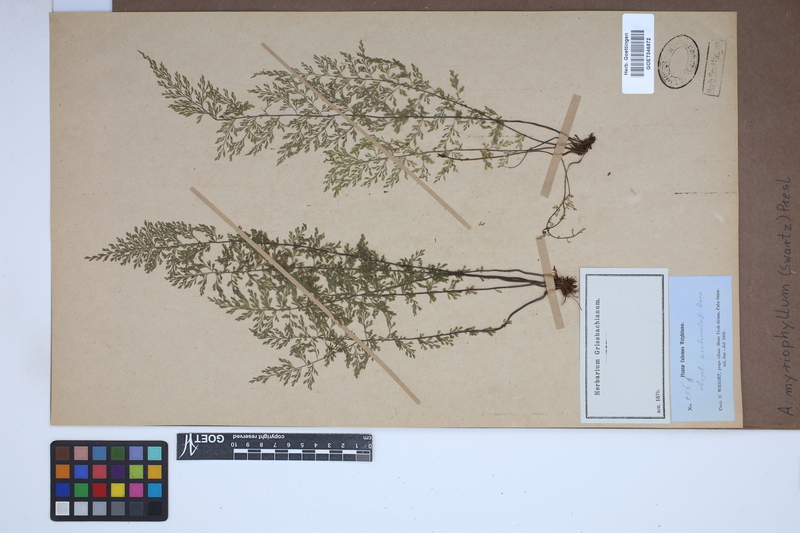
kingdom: Plantae
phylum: Tracheophyta
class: Polypodiopsida
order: Polypodiales
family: Aspleniaceae
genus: Asplenium
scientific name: Asplenium myriophyllum
